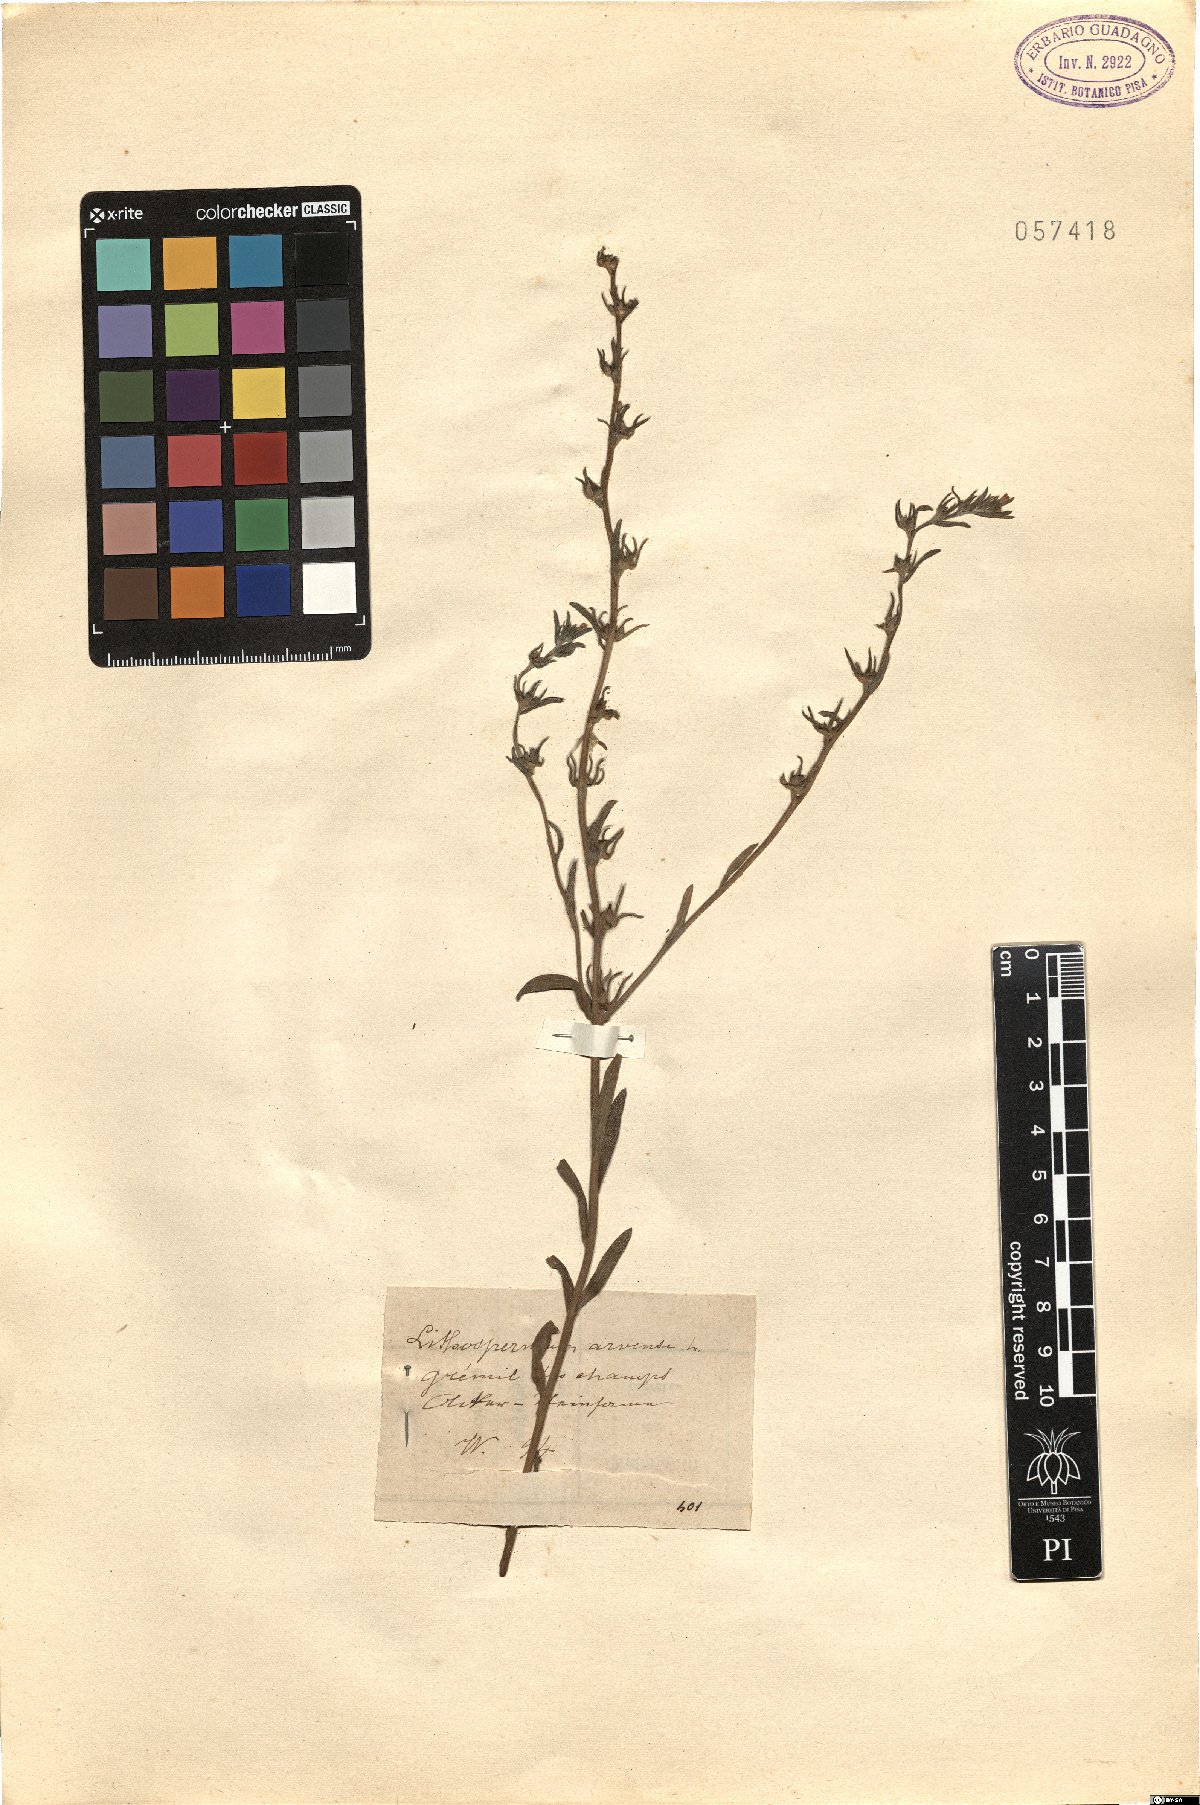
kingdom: Plantae
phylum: Tracheophyta
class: Magnoliopsida
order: Boraginales
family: Boraginaceae
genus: Buglossoides
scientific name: Buglossoides arvensis
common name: Corn gromwell
